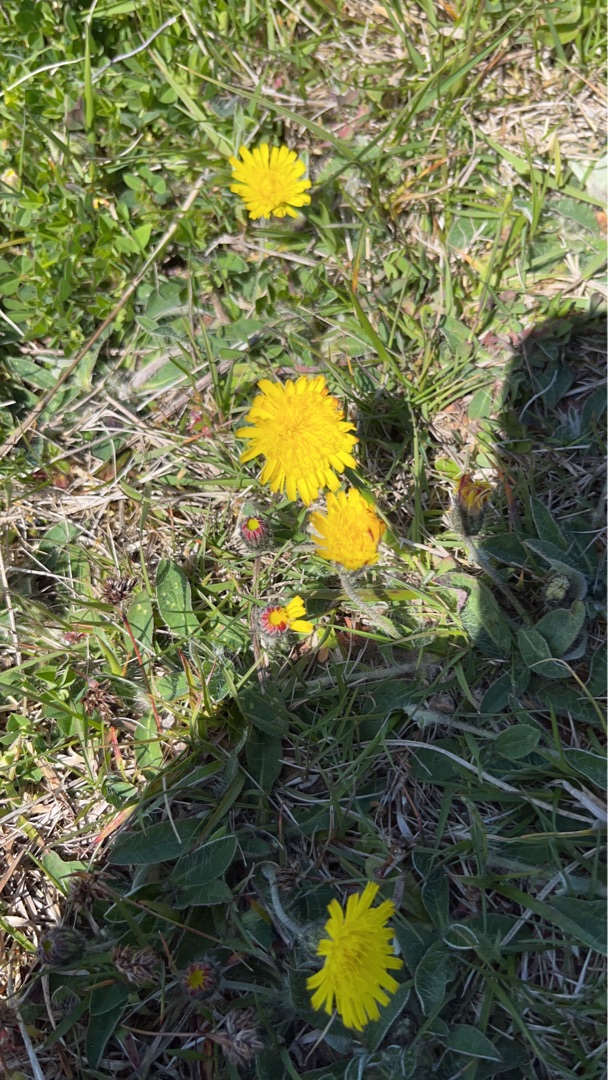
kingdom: Plantae
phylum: Tracheophyta
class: Magnoliopsida
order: Asterales
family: Asteraceae
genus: Pilosella
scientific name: Pilosella officinarum
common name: Håret høgeurt
